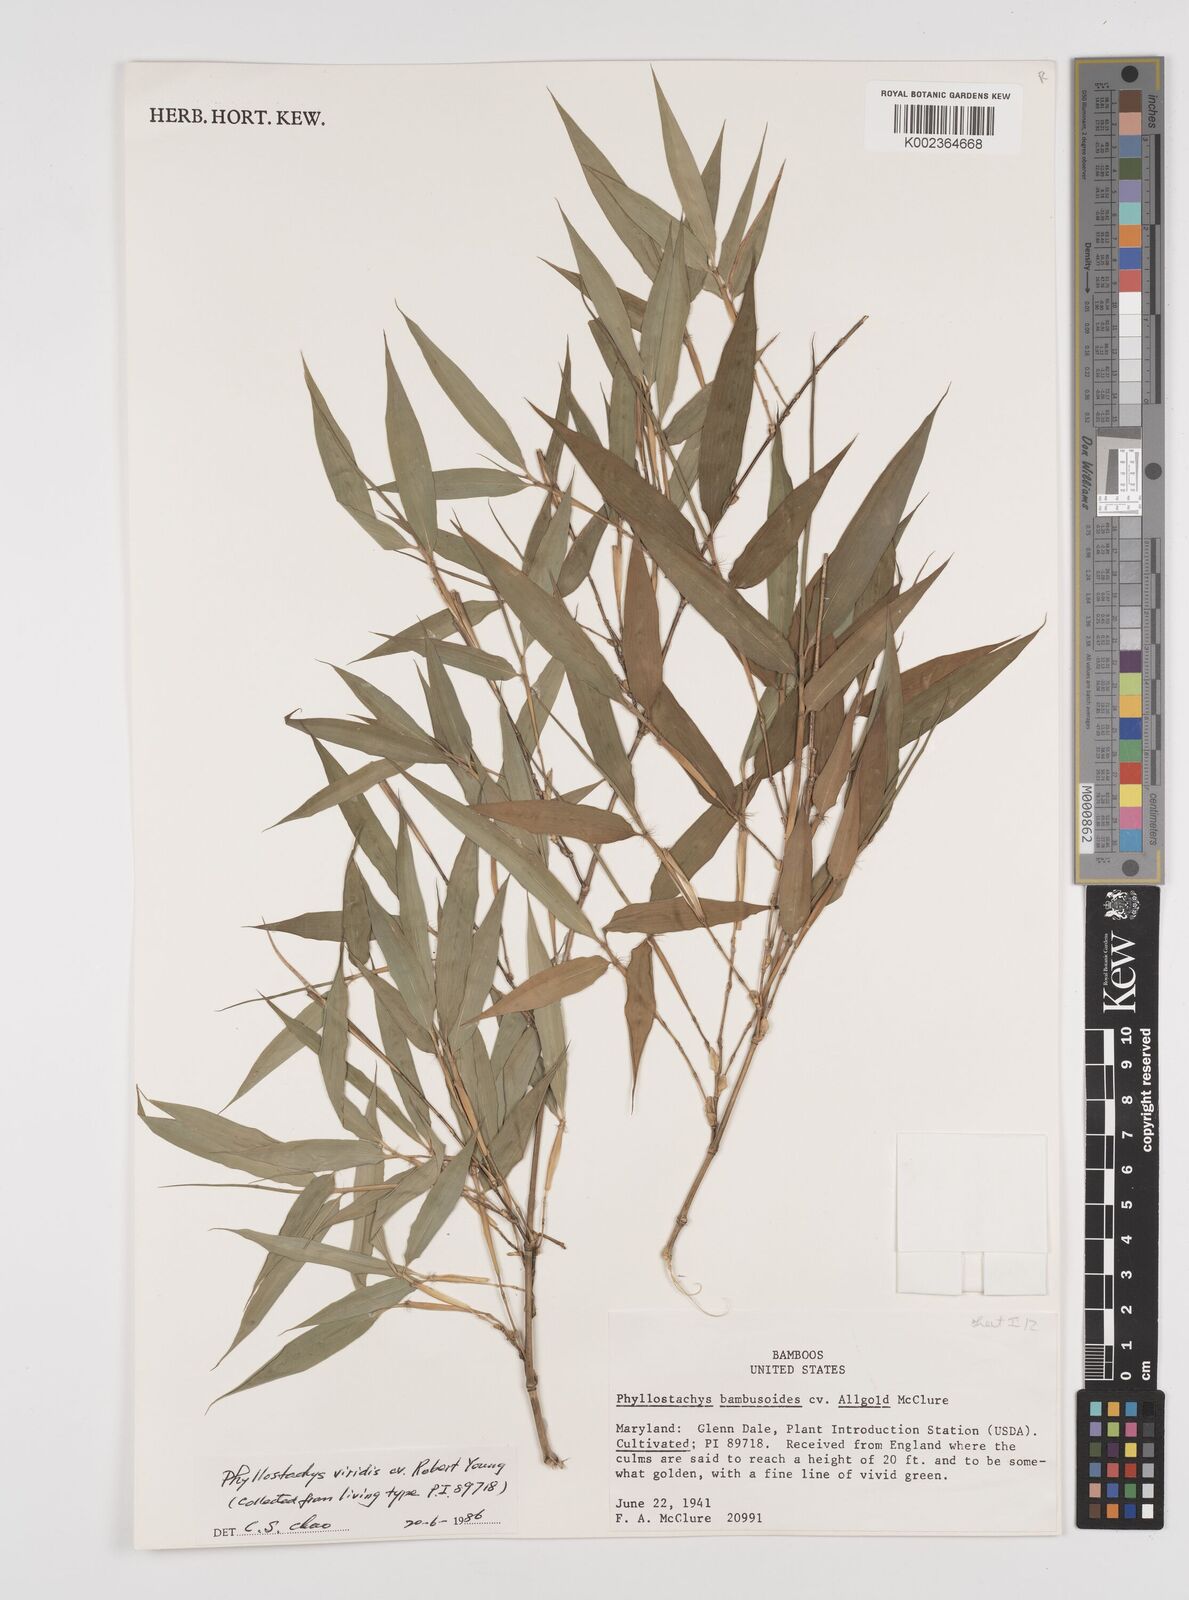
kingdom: Plantae
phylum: Tracheophyta
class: Liliopsida
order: Poales
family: Poaceae
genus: Phyllostachys
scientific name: Phyllostachys sulphurea
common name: Sulphur bamboo
